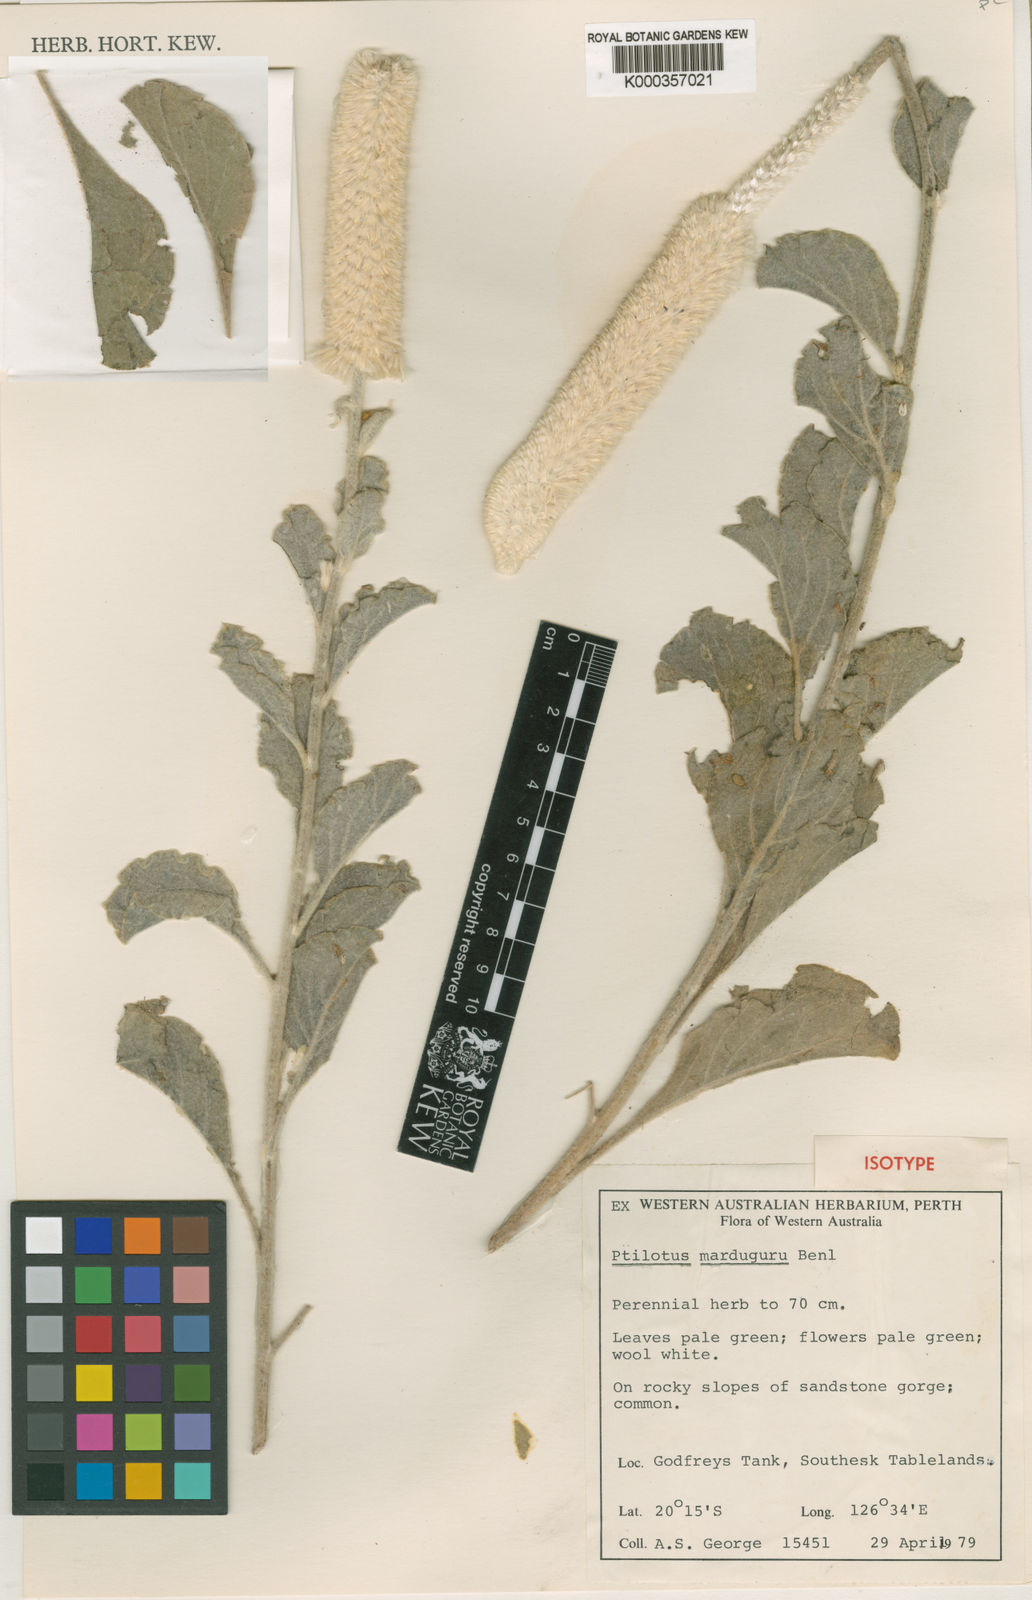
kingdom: Plantae
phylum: Tracheophyta
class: Magnoliopsida
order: Caryophyllales
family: Amaranthaceae
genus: Ptilotus
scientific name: Ptilotus marduguru
